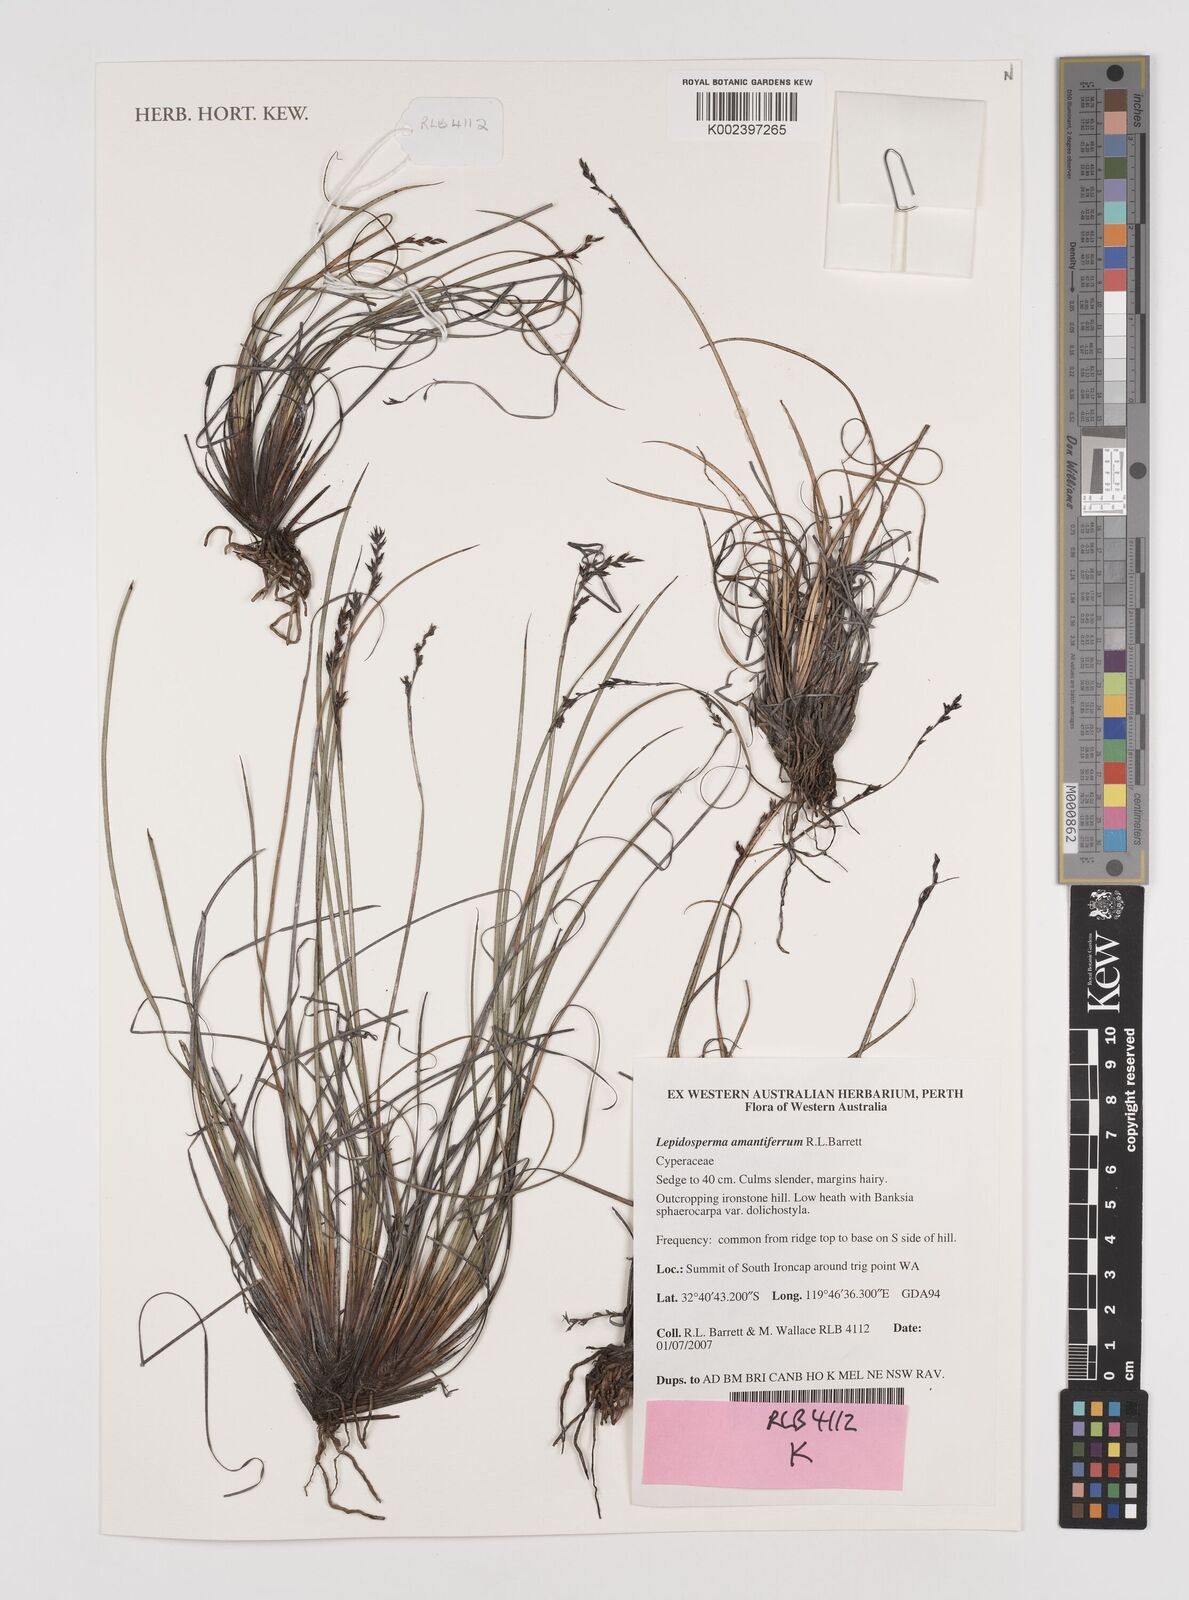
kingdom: Plantae
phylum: Tracheophyta
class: Liliopsida
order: Poales
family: Cyperaceae
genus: Lepidosperma
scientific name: Lepidosperma amantiferrum
